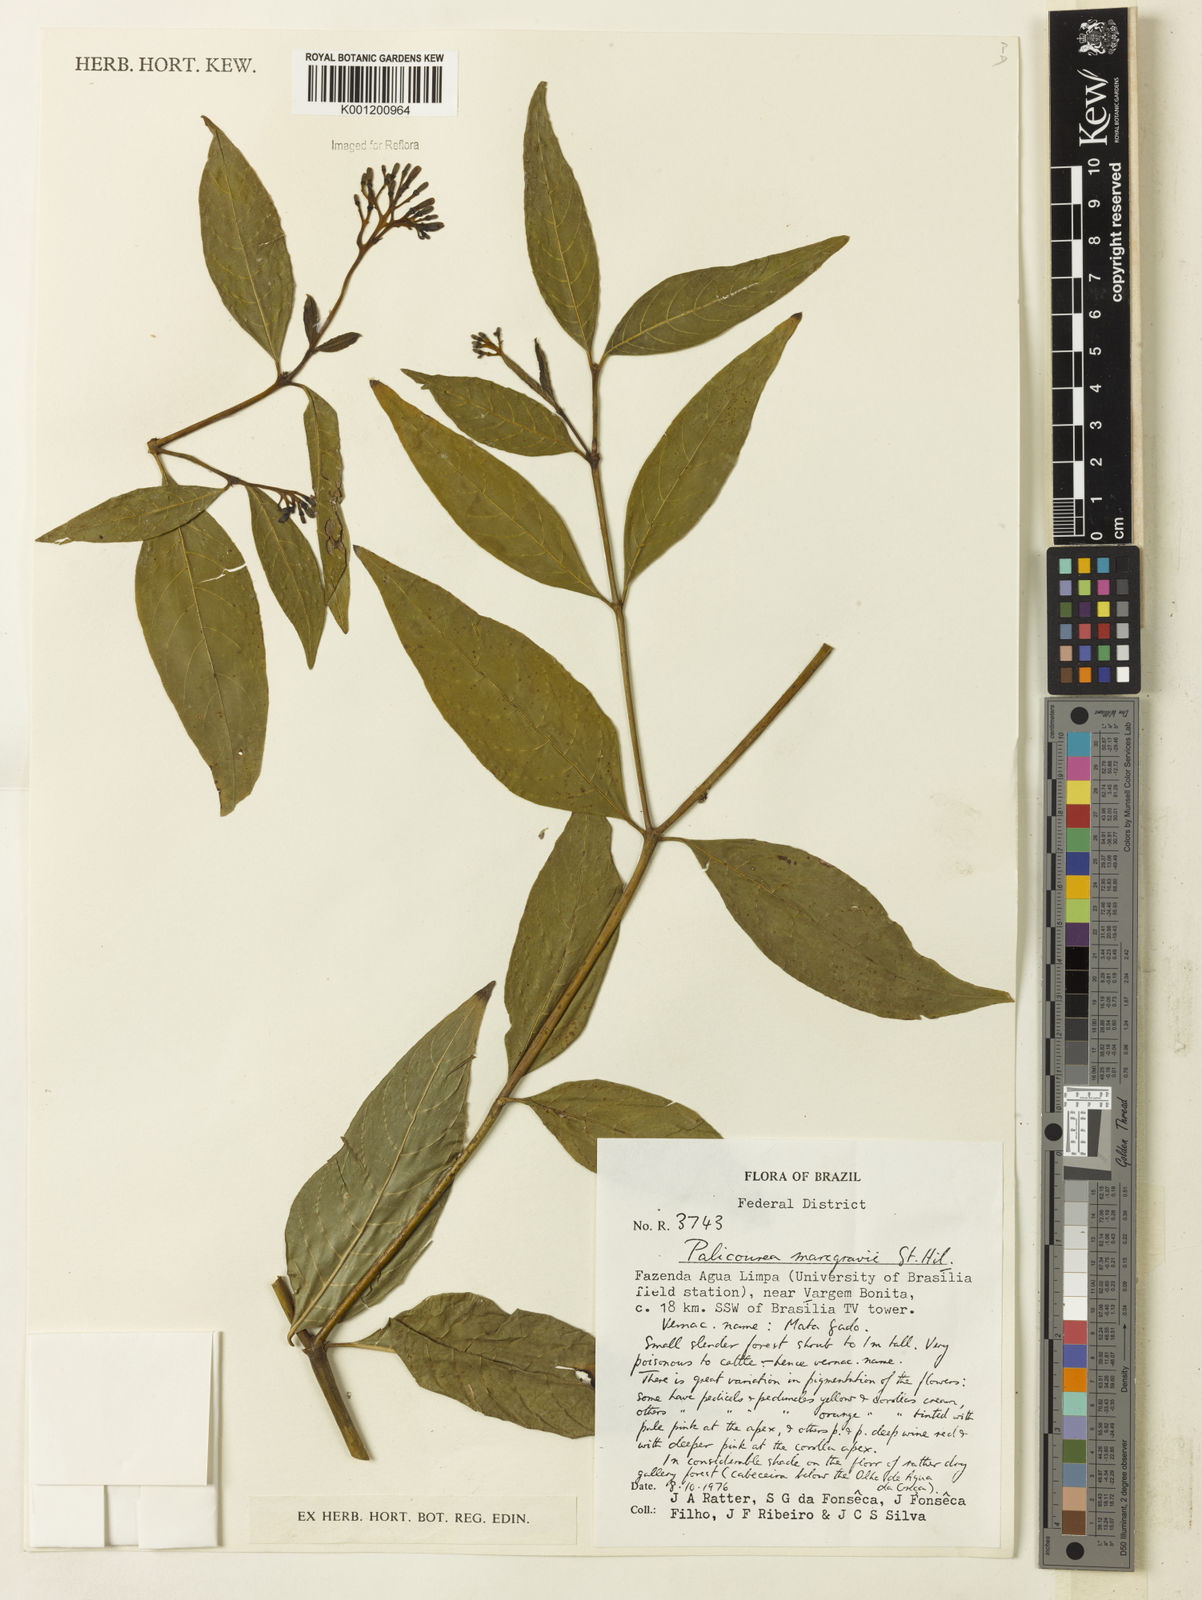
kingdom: Plantae
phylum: Tracheophyta
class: Magnoliopsida
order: Gentianales
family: Rubiaceae
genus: Palicourea
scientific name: Palicourea marcgravii
